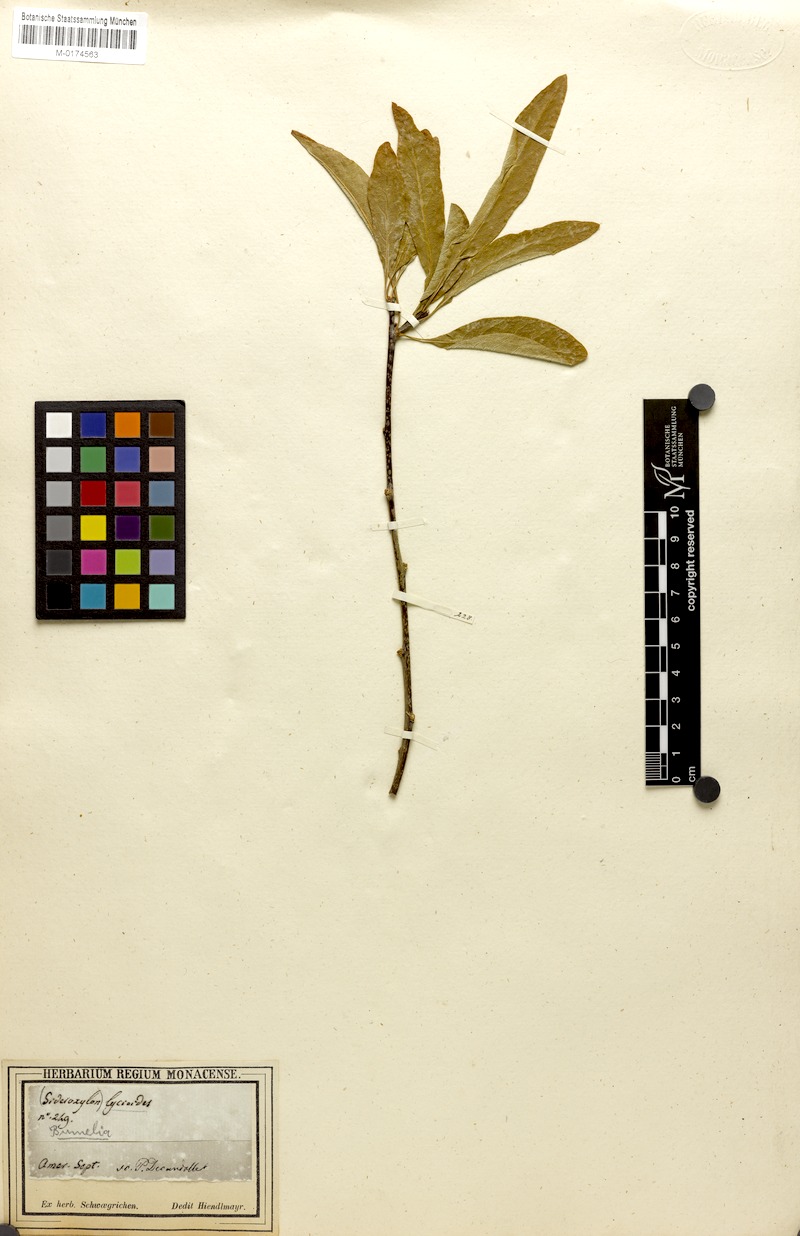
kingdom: Plantae
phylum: Tracheophyta
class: Magnoliopsida
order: Ericales
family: Sapotaceae
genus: Sideroxylon
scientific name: Sideroxylon lycioides
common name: Buckthorn bumelia
